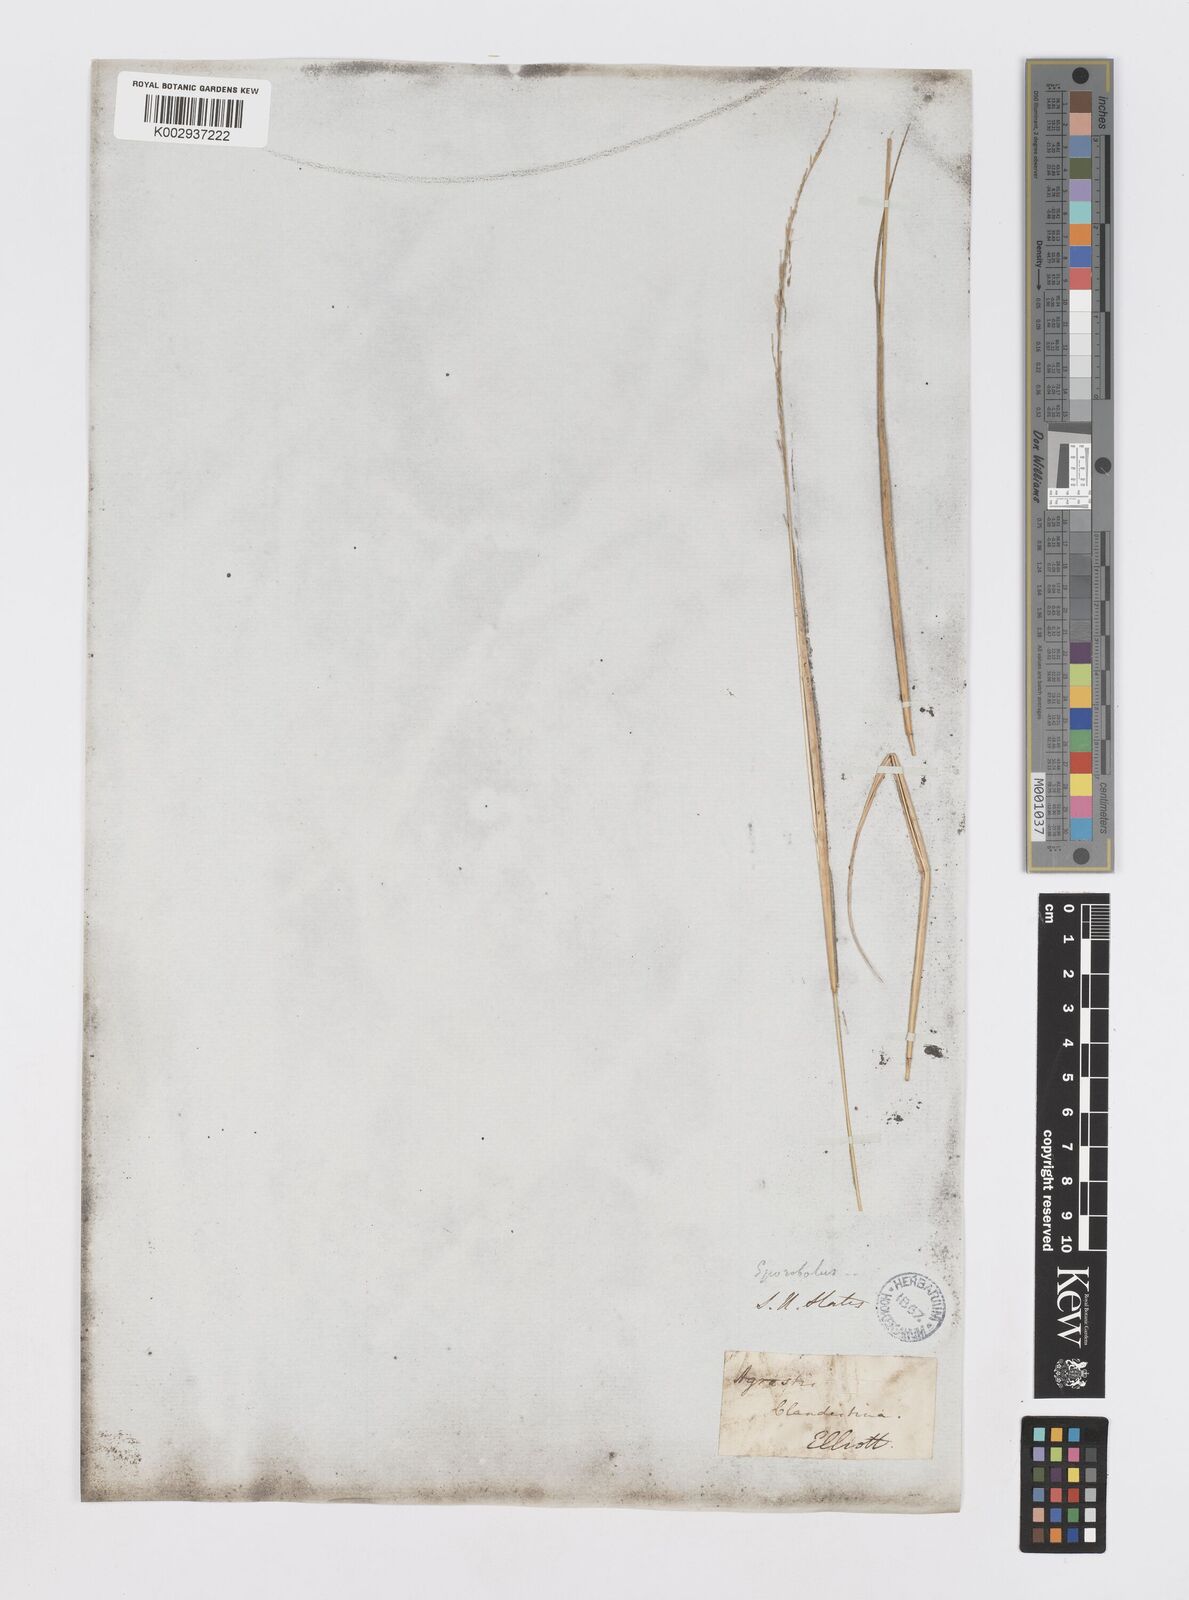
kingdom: Plantae
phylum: Tracheophyta
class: Liliopsida
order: Poales
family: Poaceae
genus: Sporobolus
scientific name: Sporobolus clandestinus
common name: Hidden dropseed
